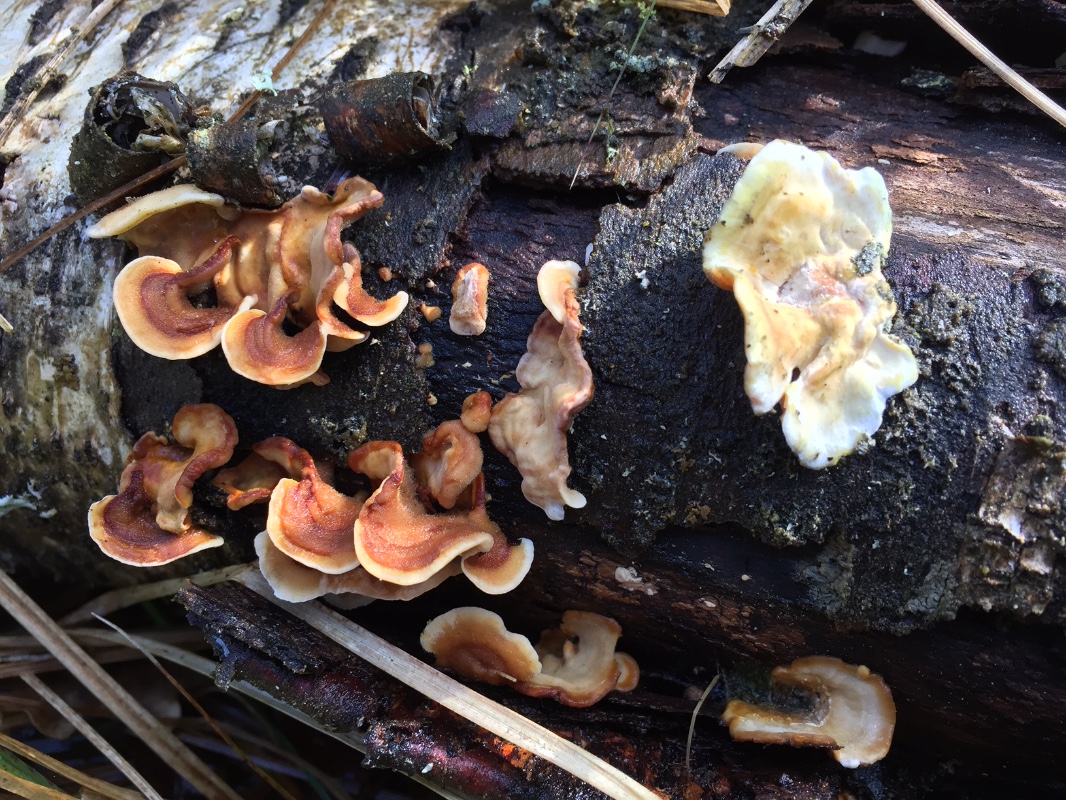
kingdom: Fungi
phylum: Basidiomycota
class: Agaricomycetes
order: Russulales
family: Stereaceae
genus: Stereum
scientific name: Stereum subtomentosum
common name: smuk lædersvamp
